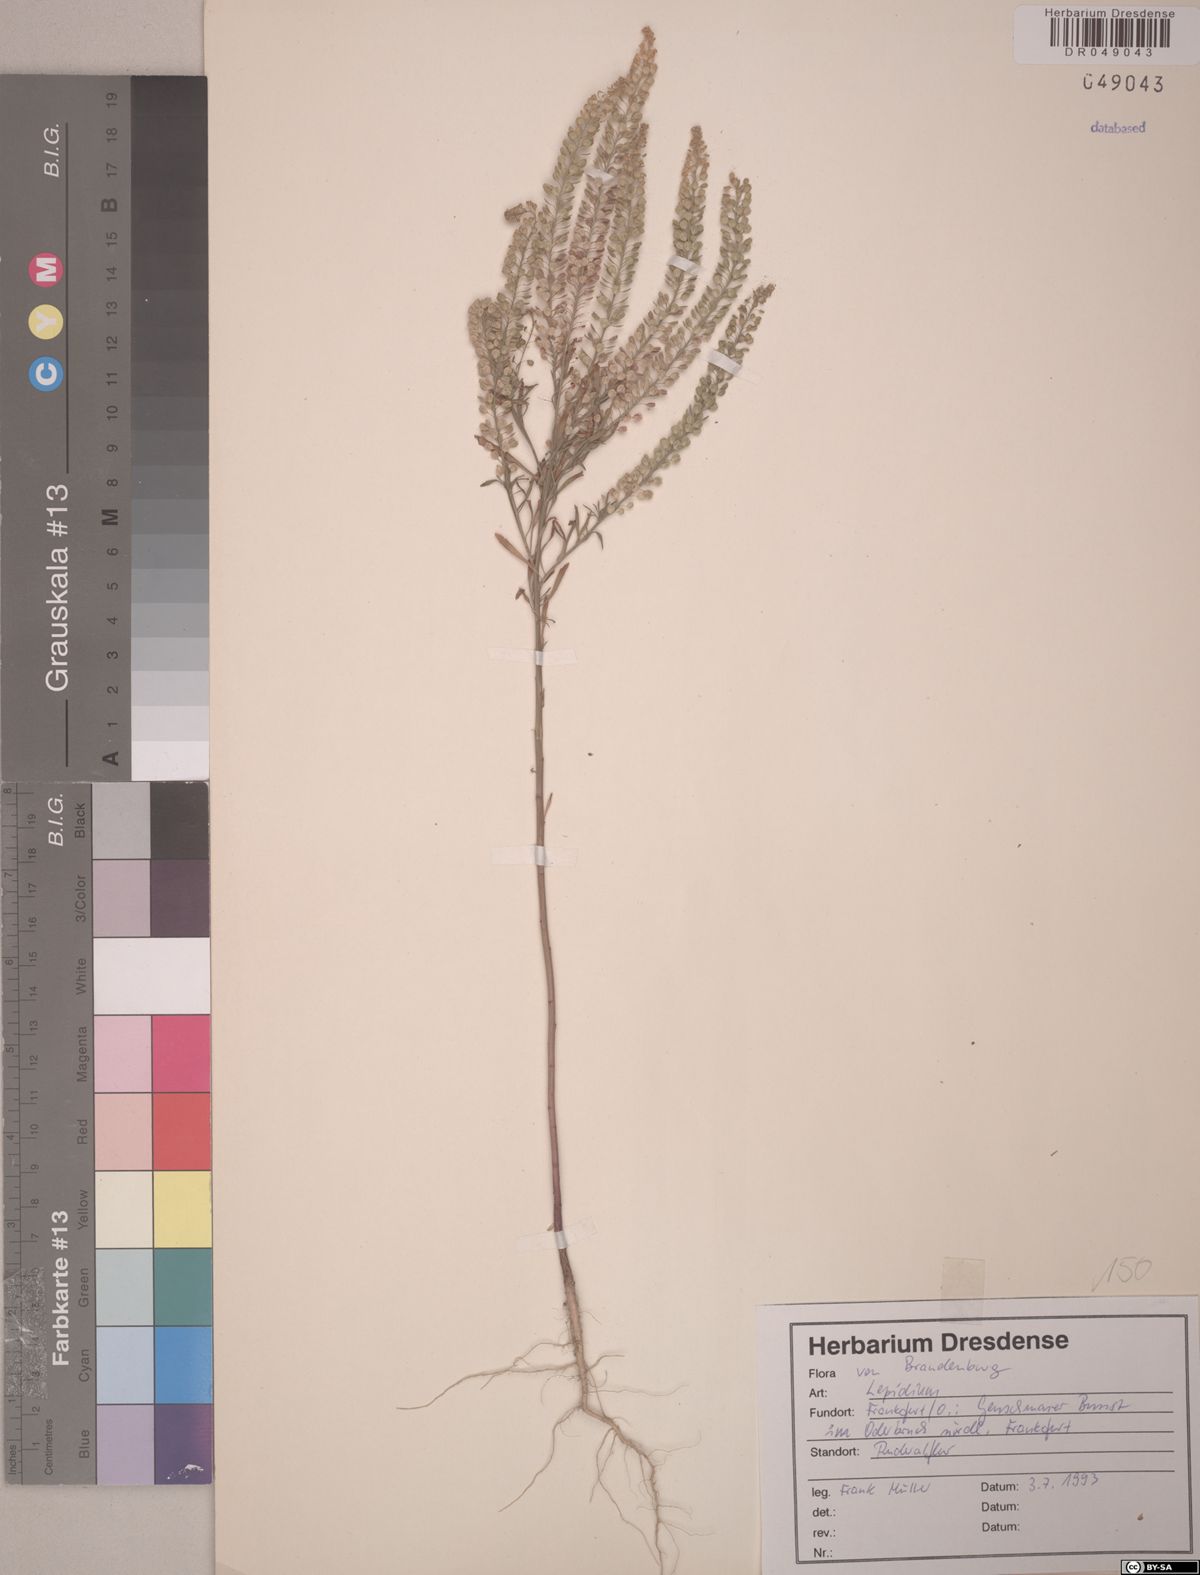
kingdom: Plantae
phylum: Tracheophyta
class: Magnoliopsida
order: Brassicales
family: Brassicaceae
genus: Lepidium
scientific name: Lepidium
